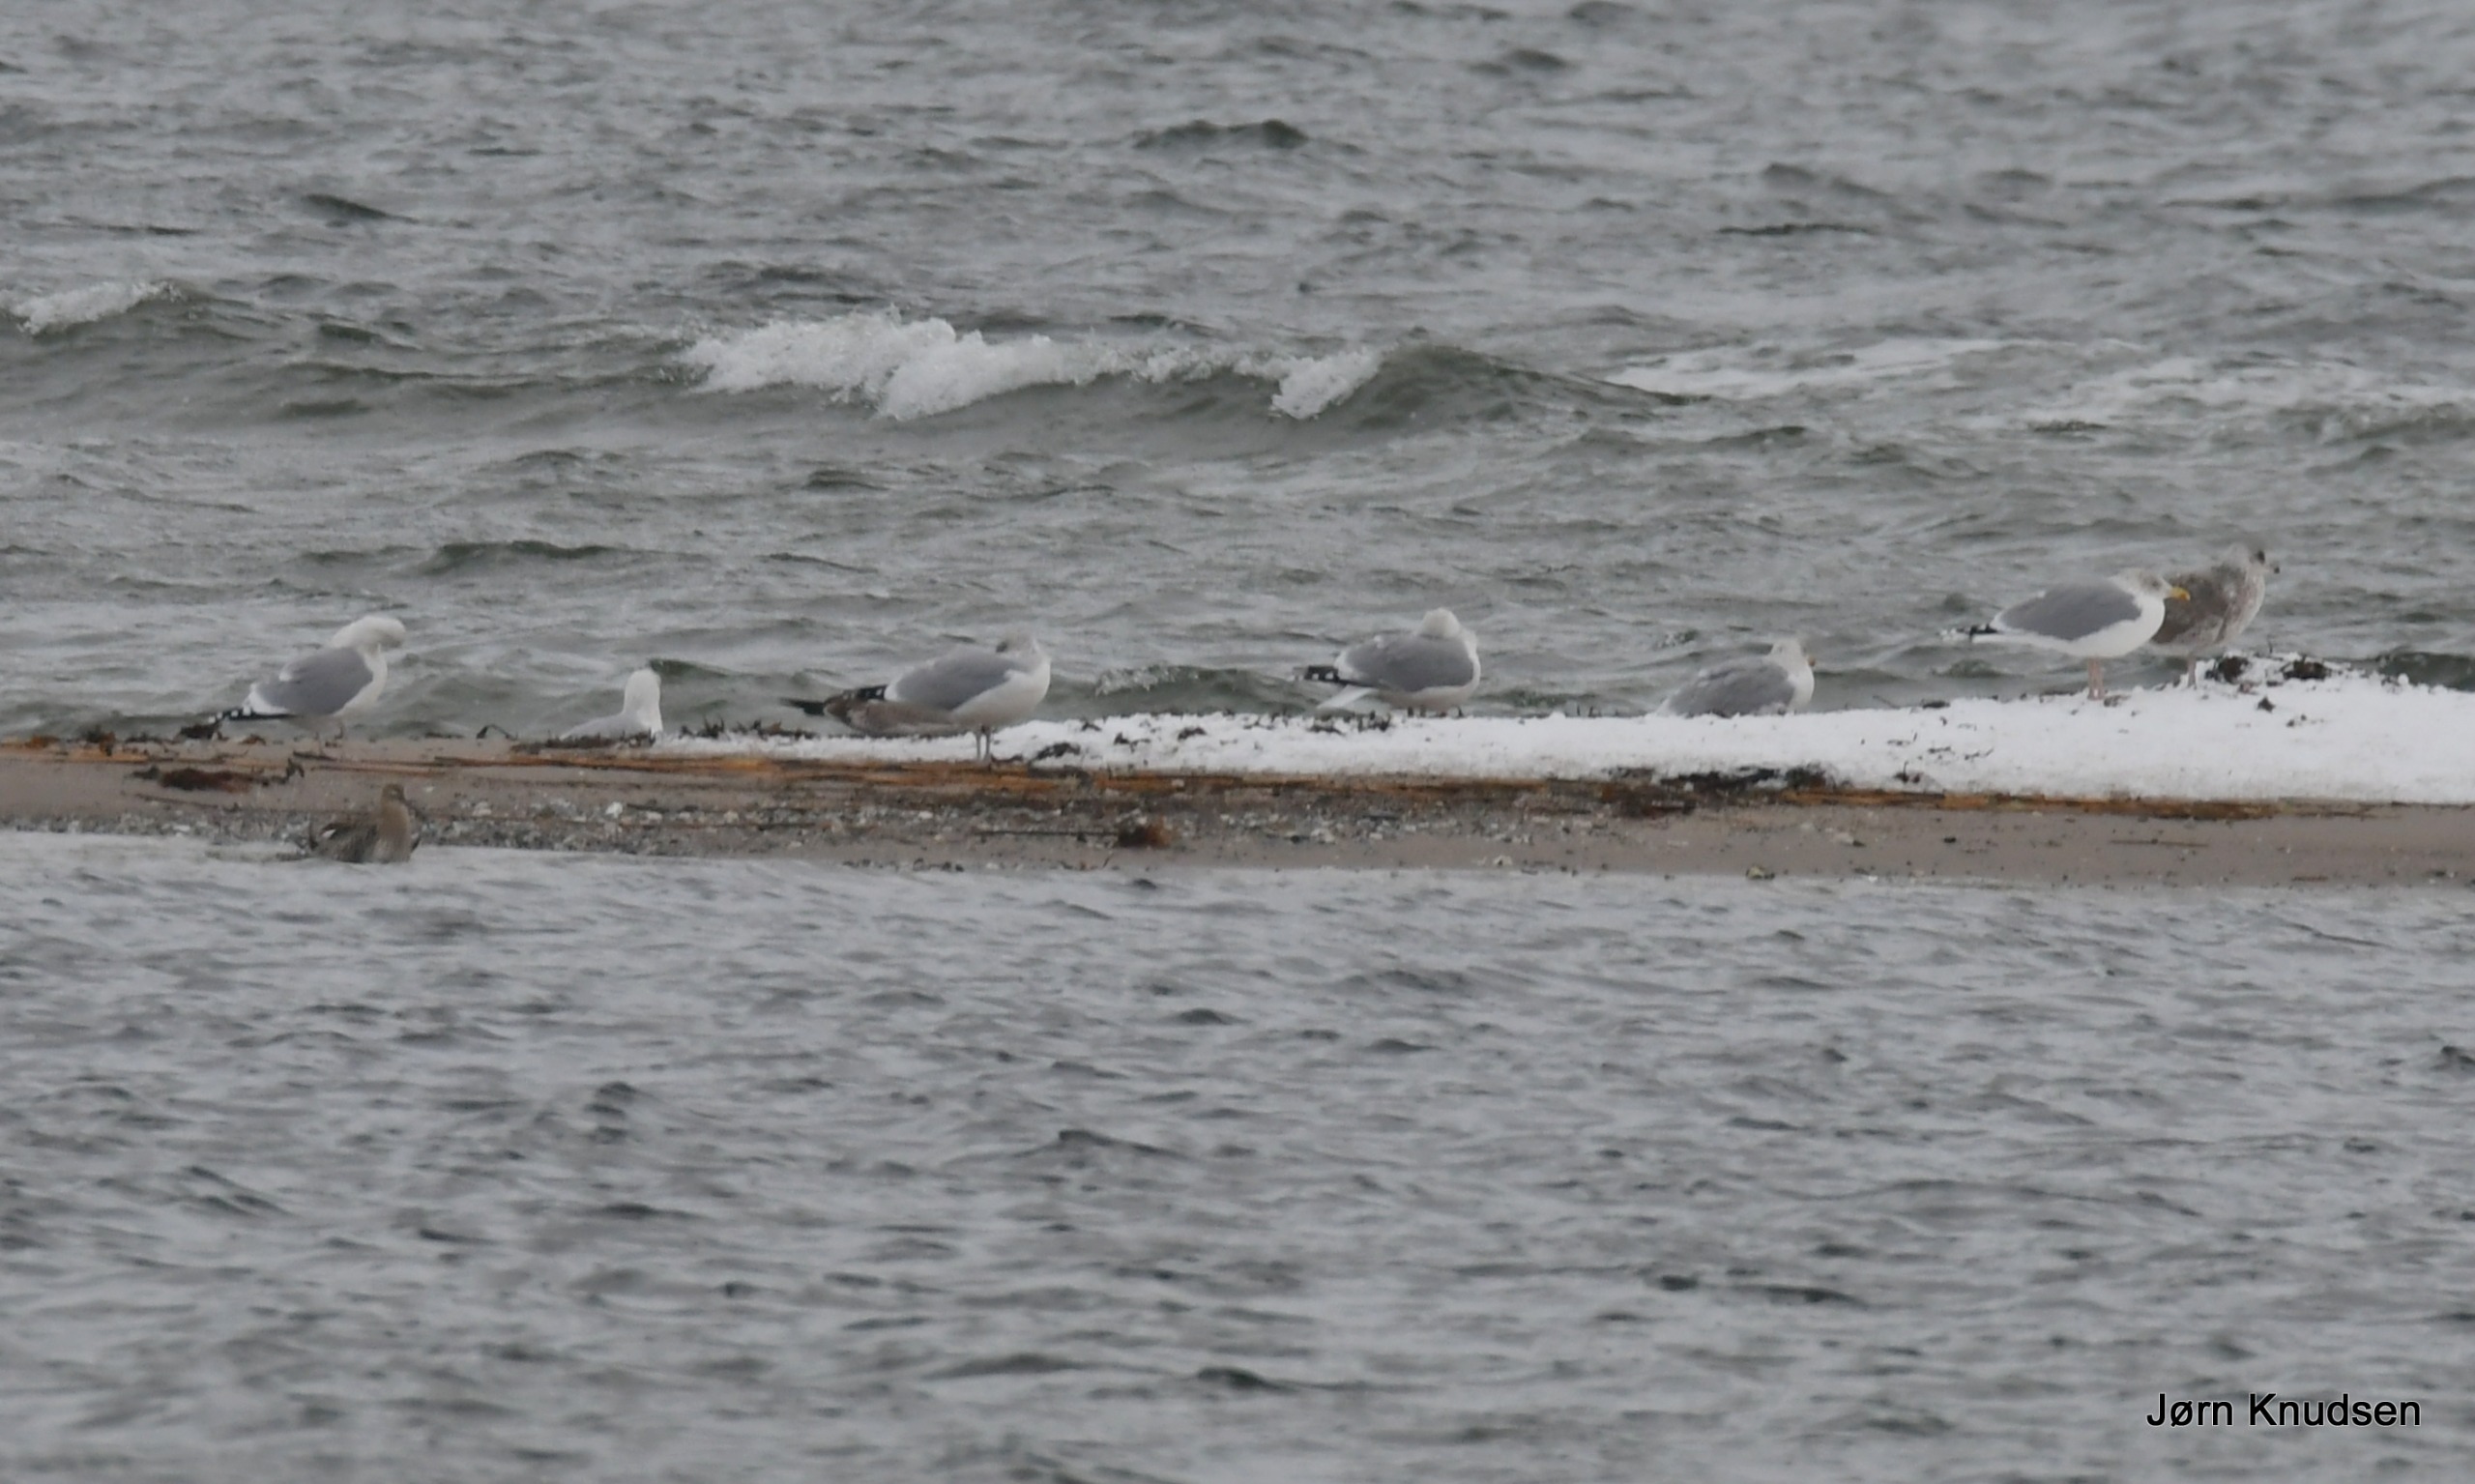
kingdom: Animalia
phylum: Chordata
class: Aves
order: Charadriiformes
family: Laridae
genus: Larus
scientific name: Larus argentatus
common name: Sølvmåge
